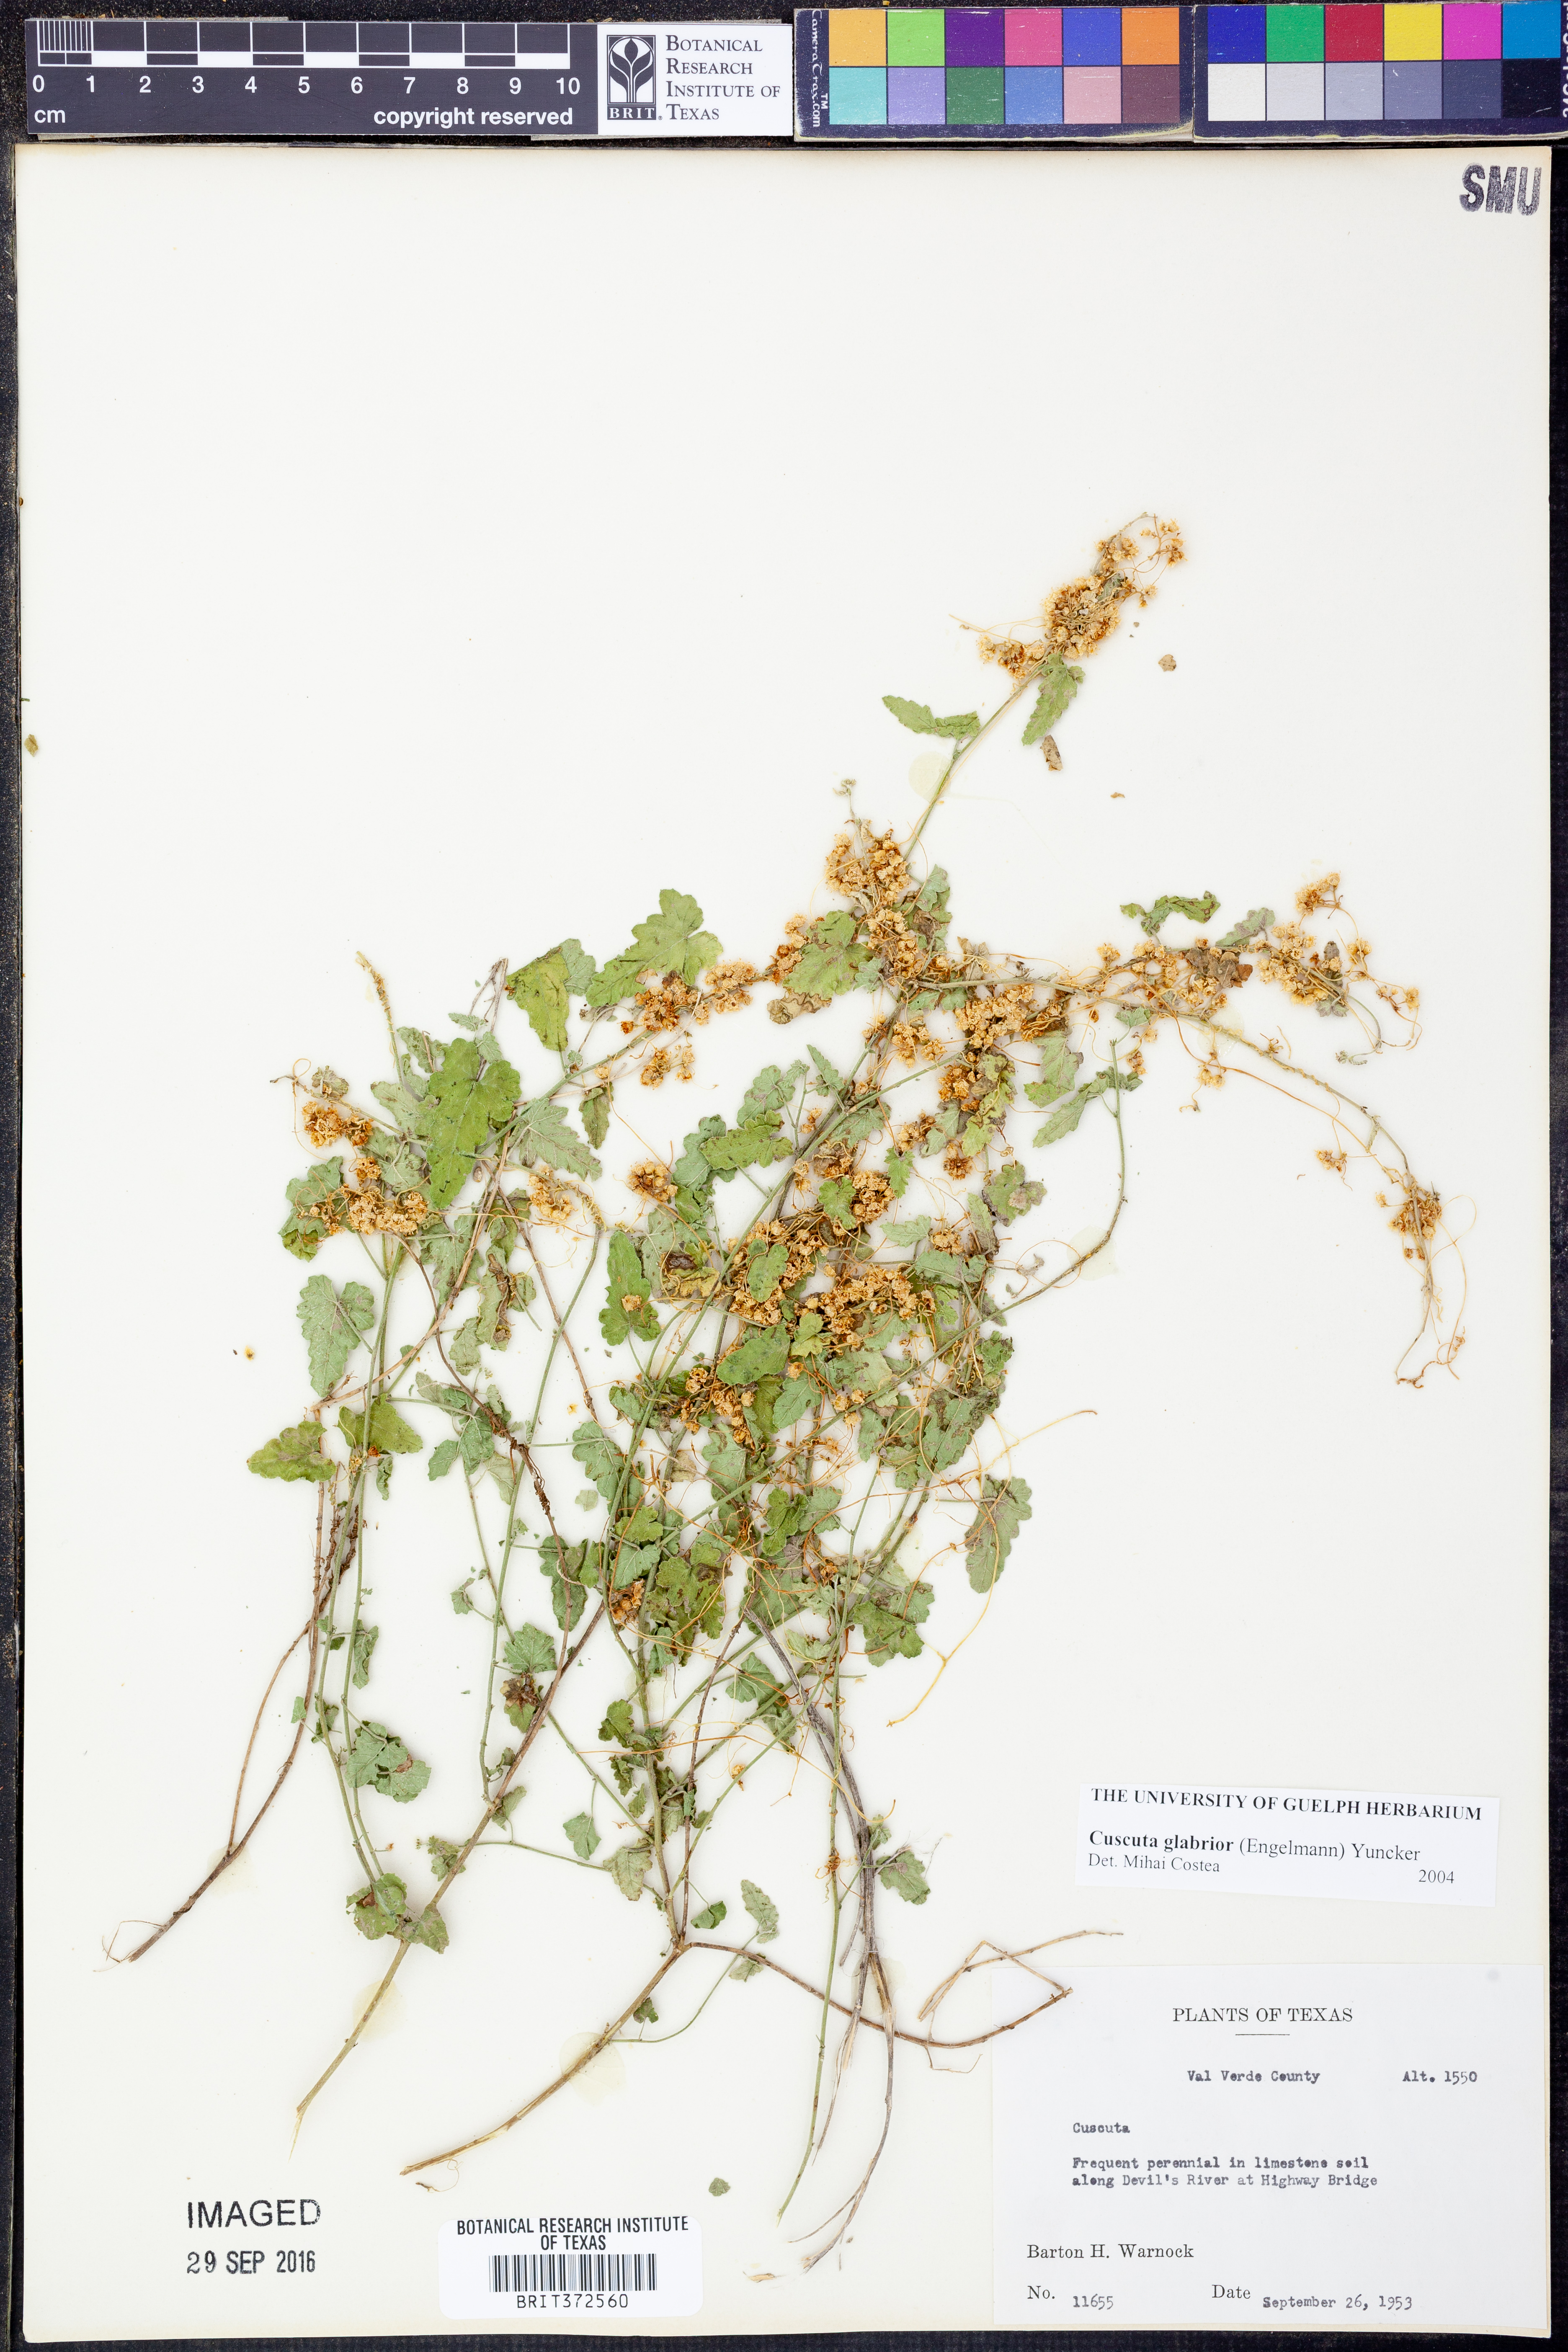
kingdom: Plantae
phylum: Tracheophyta
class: Magnoliopsida
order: Solanales
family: Convolvulaceae
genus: Cuscuta
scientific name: Cuscuta glabrior
